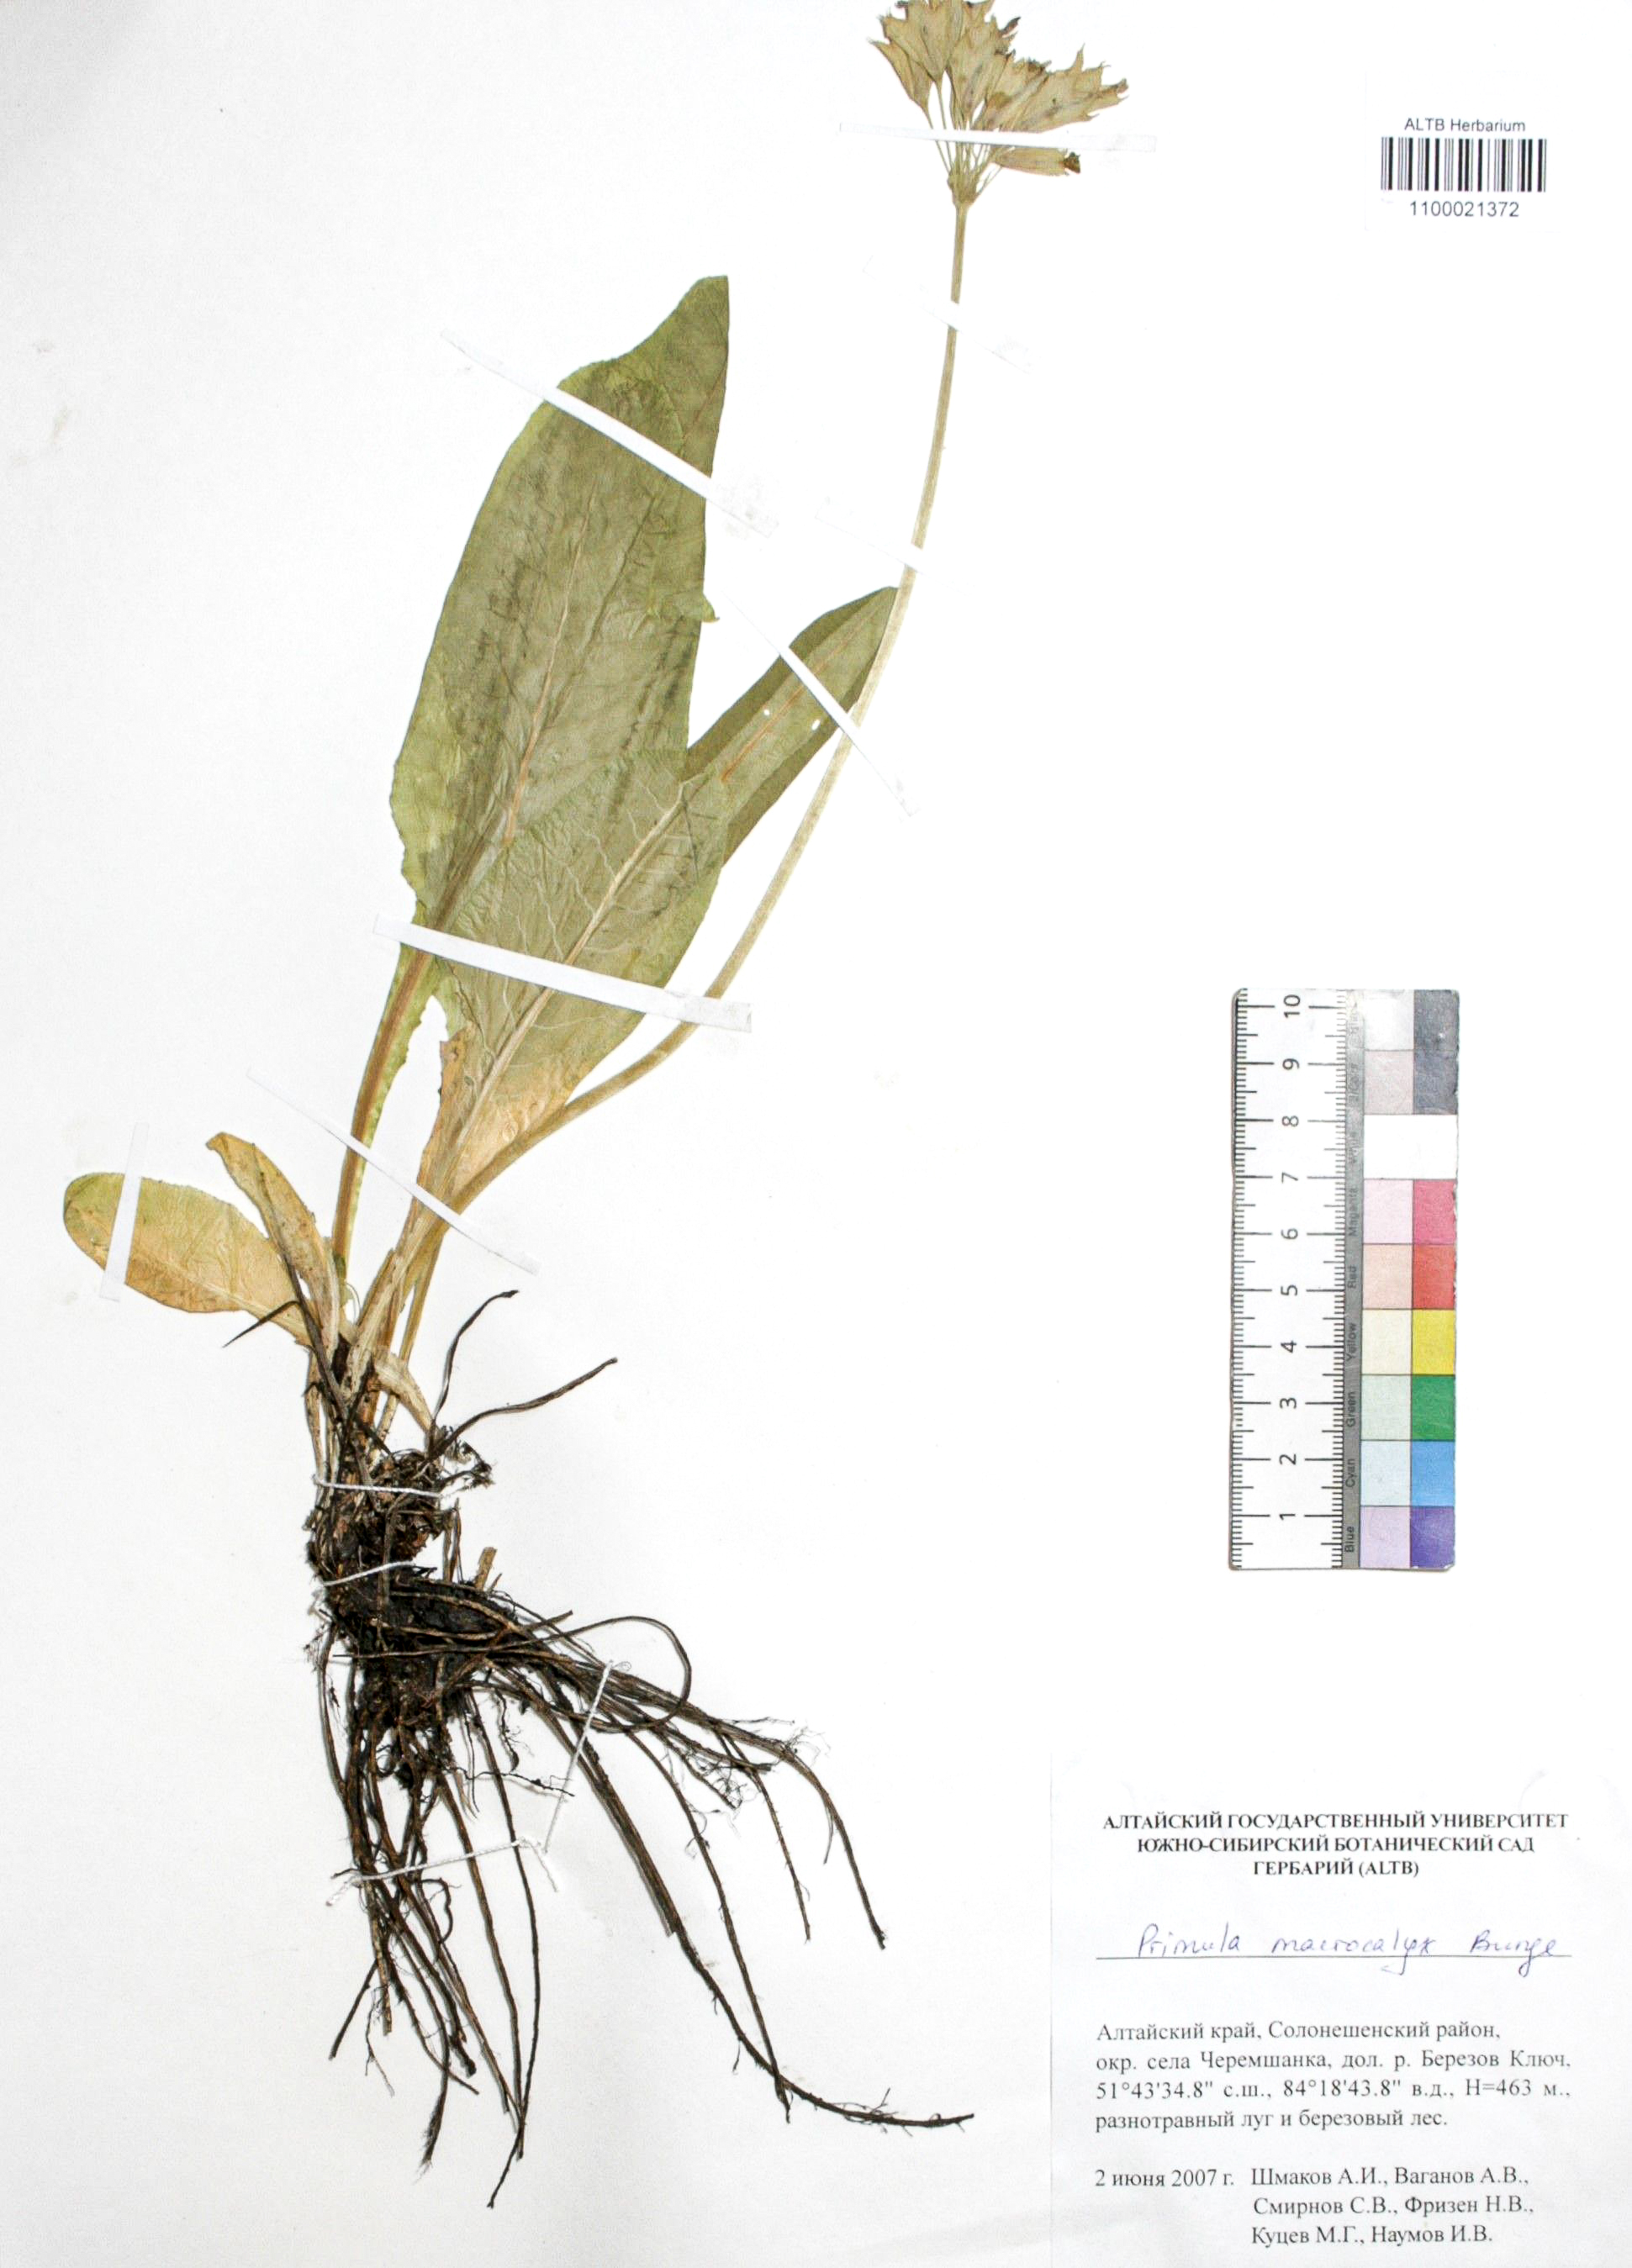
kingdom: Plantae
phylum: Tracheophyta
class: Magnoliopsida
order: Ericales
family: Primulaceae
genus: Primula
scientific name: Primula veris
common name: Cowslip
